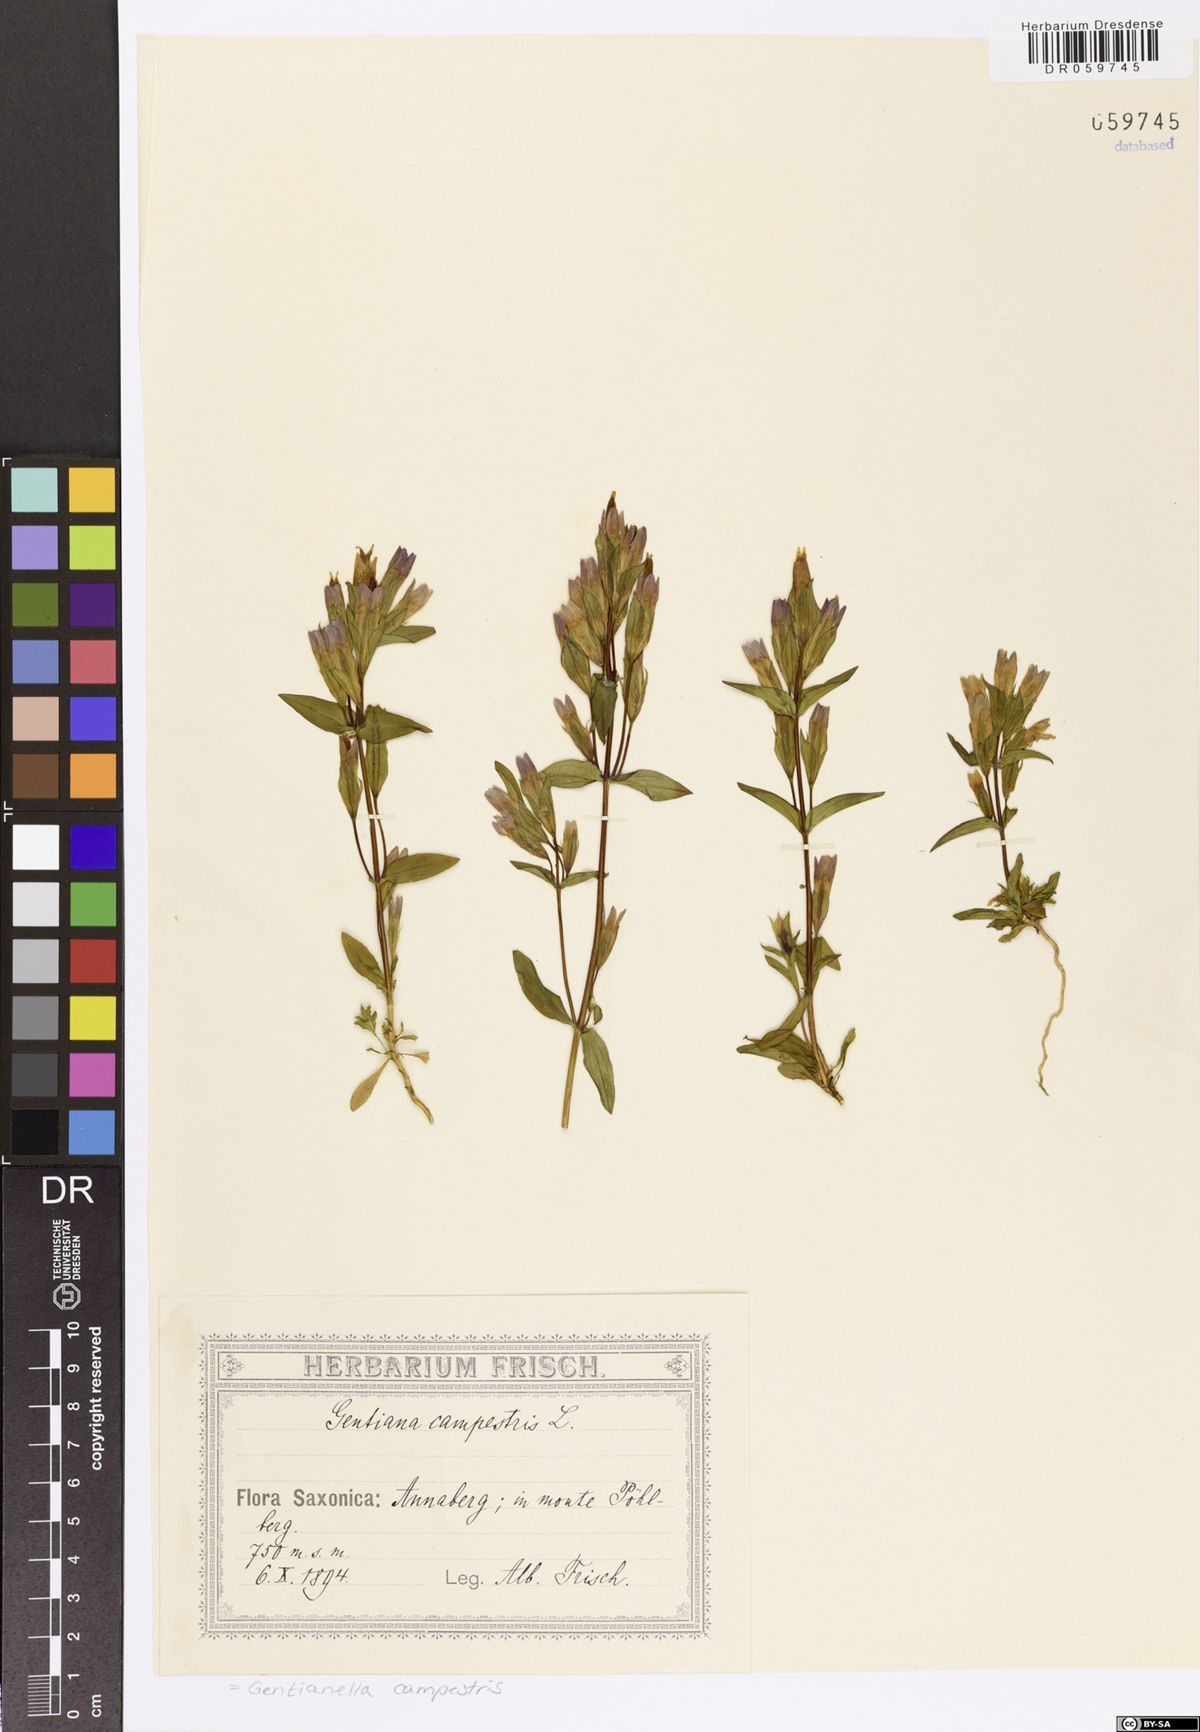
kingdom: Plantae
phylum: Tracheophyta
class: Magnoliopsida
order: Gentianales
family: Gentianaceae
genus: Gentianella
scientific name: Gentianella campestris
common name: Field gentian
